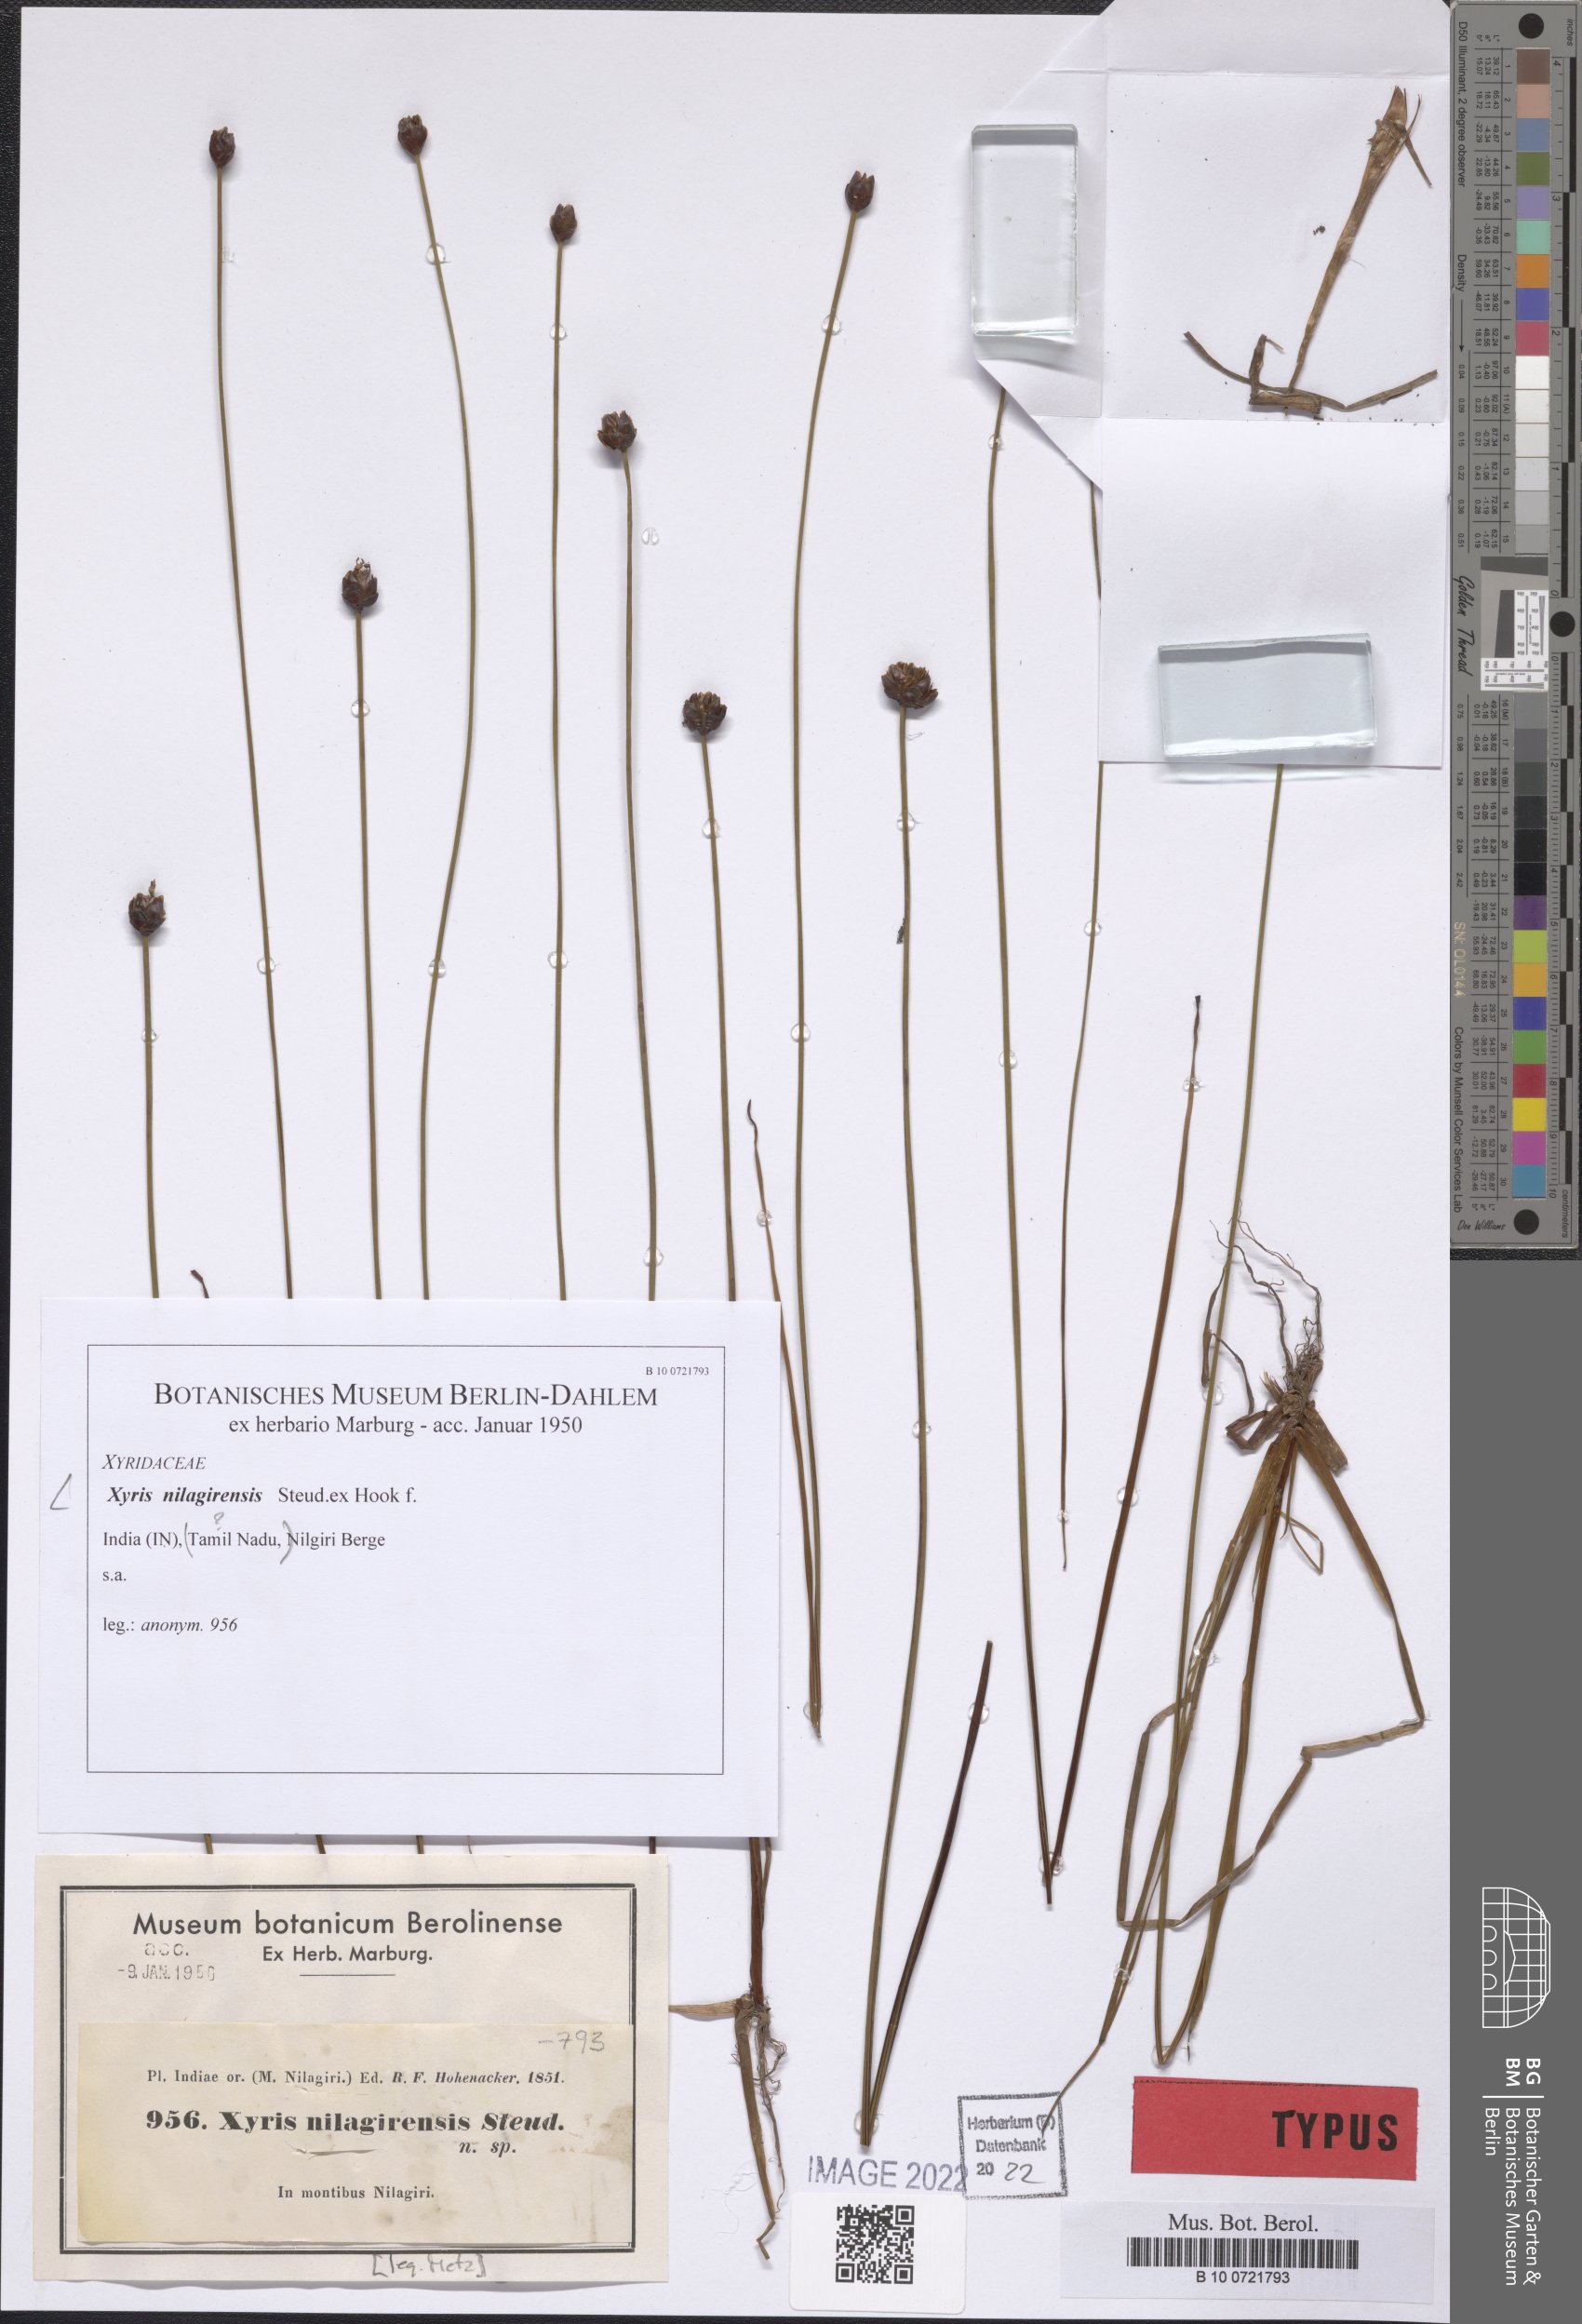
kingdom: Plantae
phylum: Tracheophyta
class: Liliopsida
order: Poales
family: Xyridaceae
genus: Xyris
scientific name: Xyris capensis
